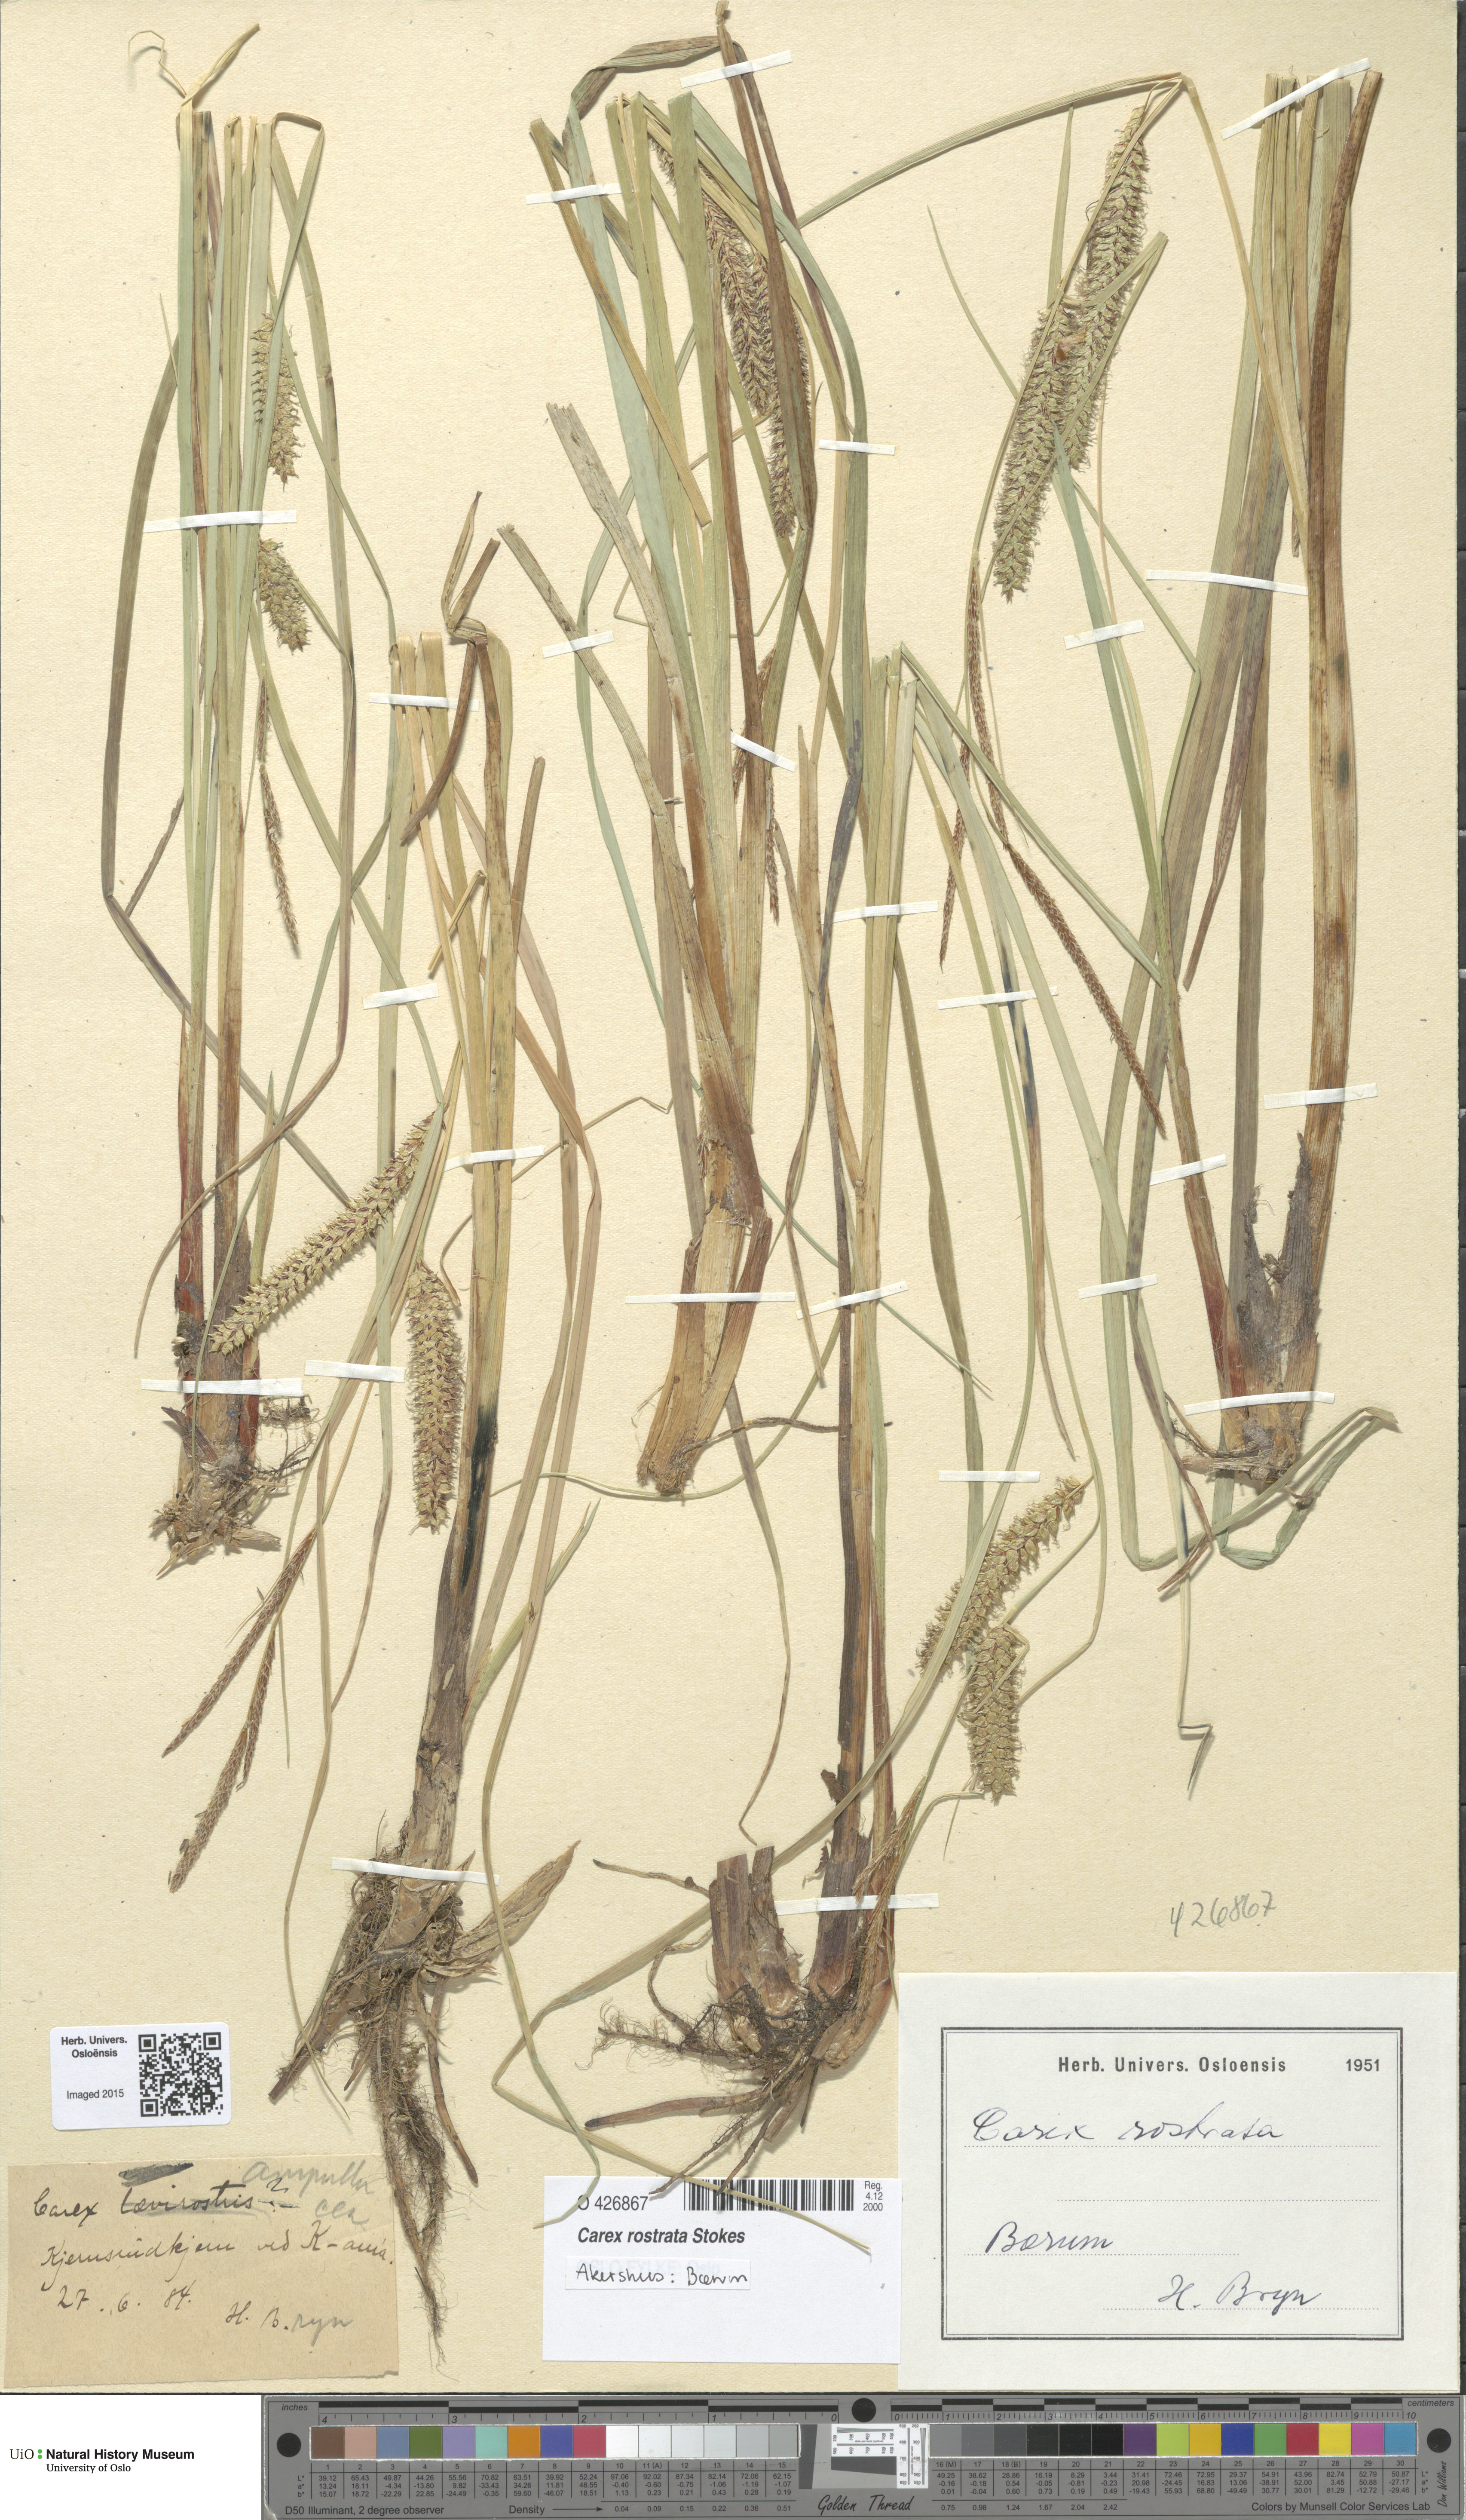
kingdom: Plantae
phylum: Tracheophyta
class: Liliopsida
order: Poales
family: Cyperaceae
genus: Carex
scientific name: Carex rostrata
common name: Bottle sedge
